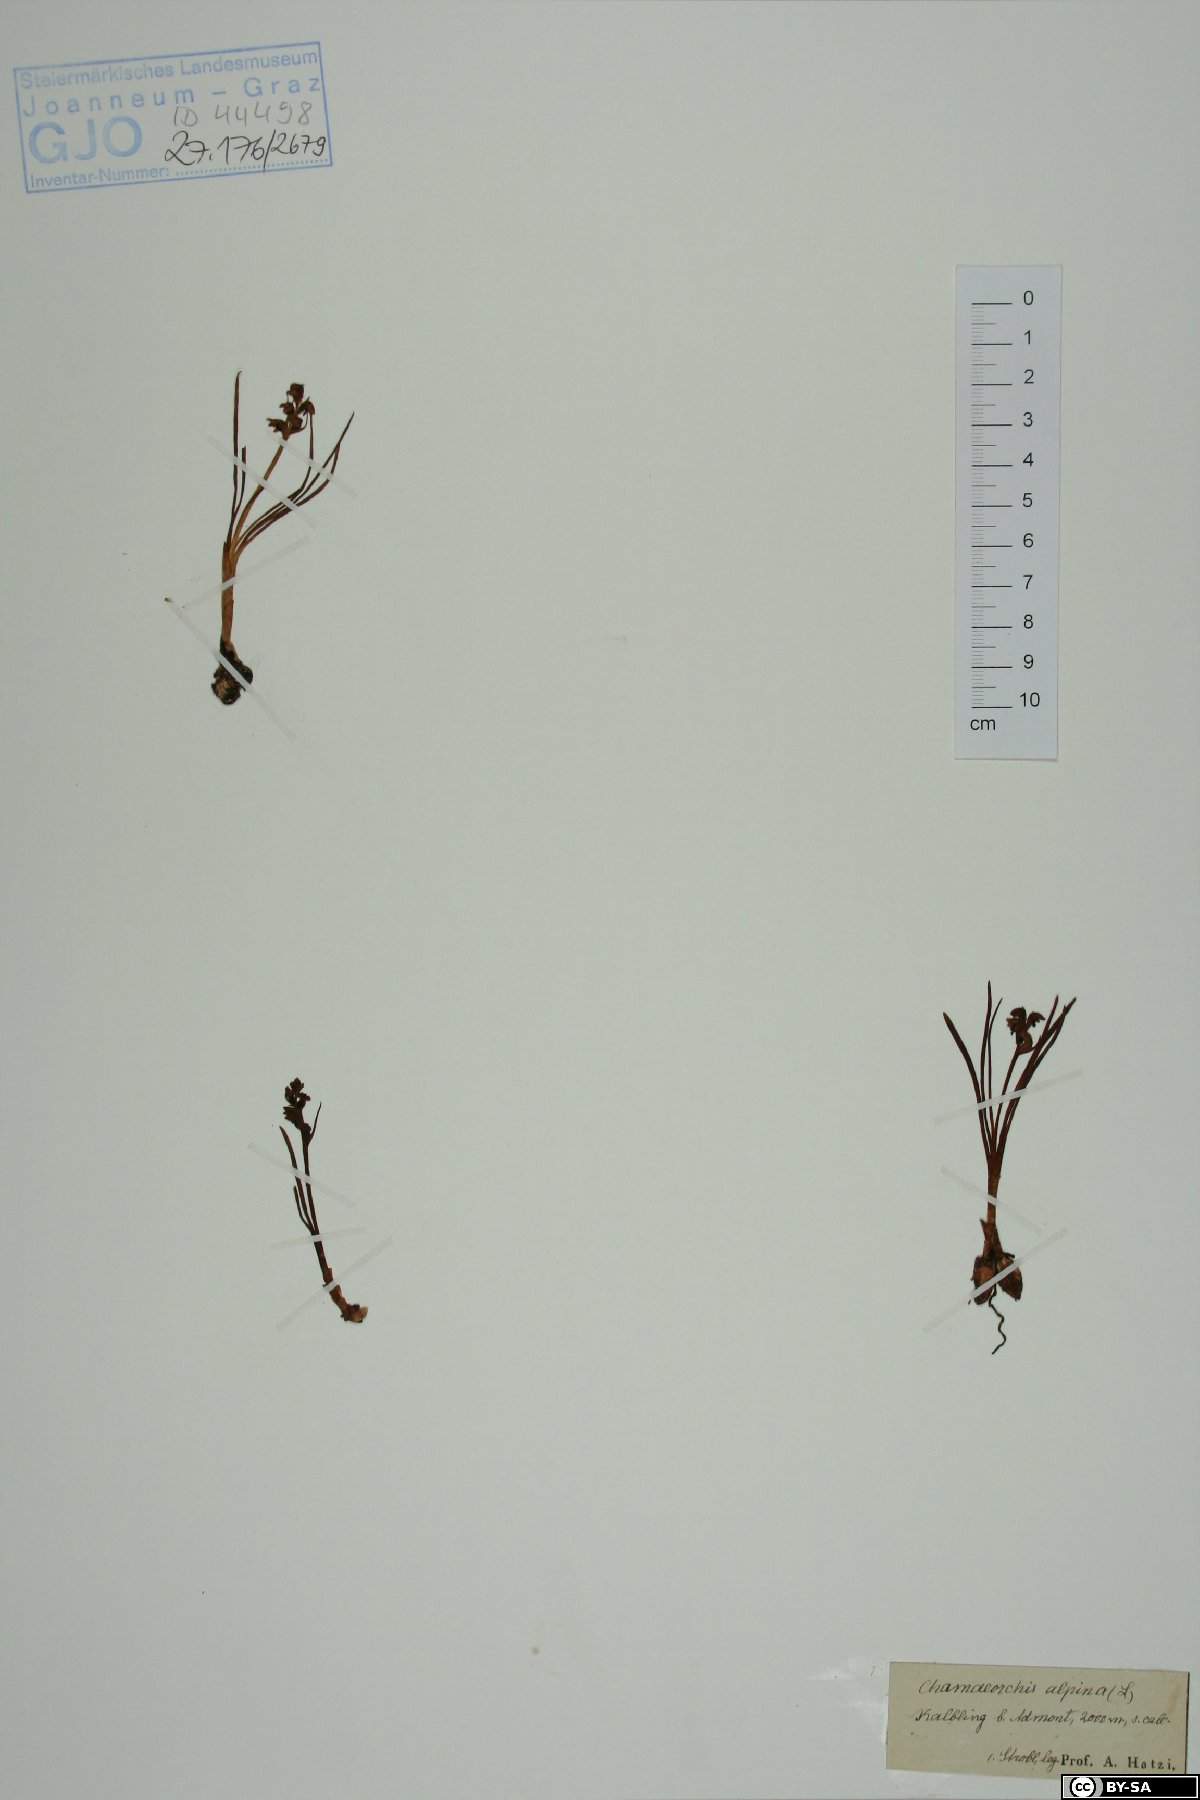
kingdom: Plantae
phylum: Tracheophyta
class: Liliopsida
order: Asparagales
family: Orchidaceae
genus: Chamorchis
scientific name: Chamorchis alpina
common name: Alpine chamorchis
